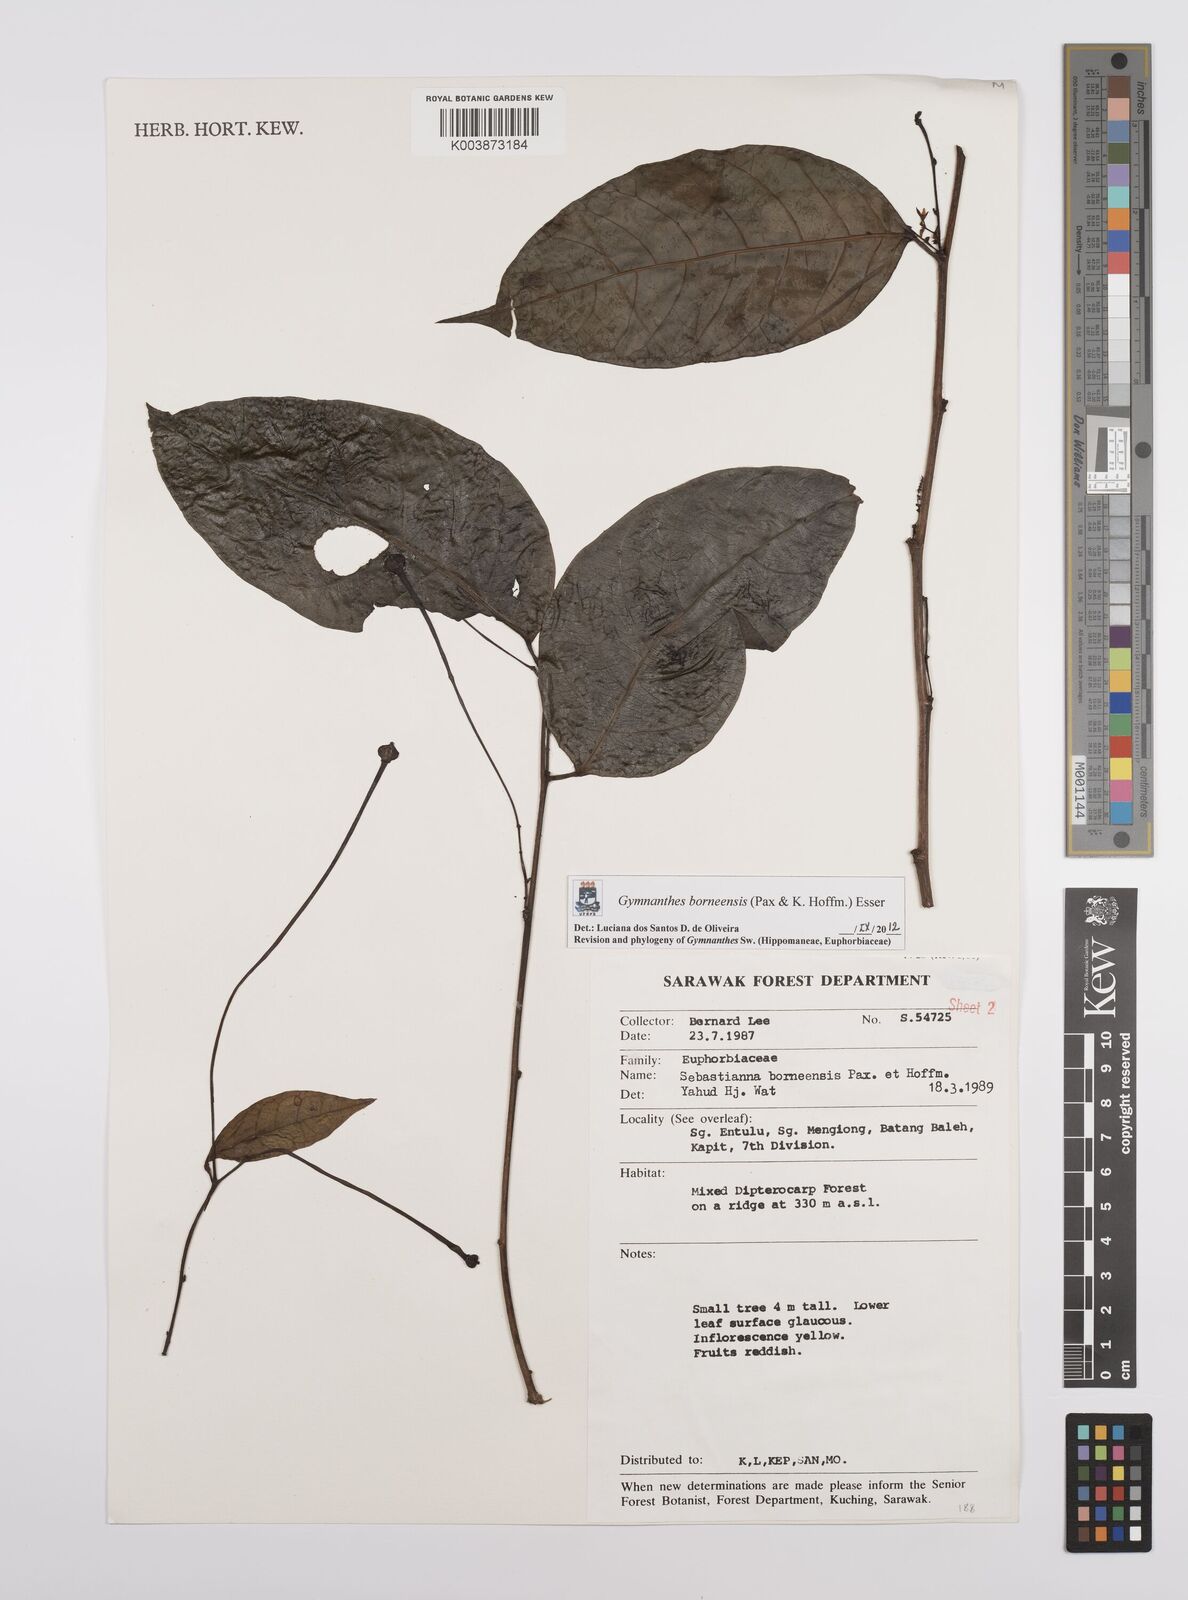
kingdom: Plantae
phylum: Tracheophyta
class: Magnoliopsida
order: Malpighiales
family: Euphorbiaceae
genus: Gymnanthes
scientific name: Gymnanthes borneensis
